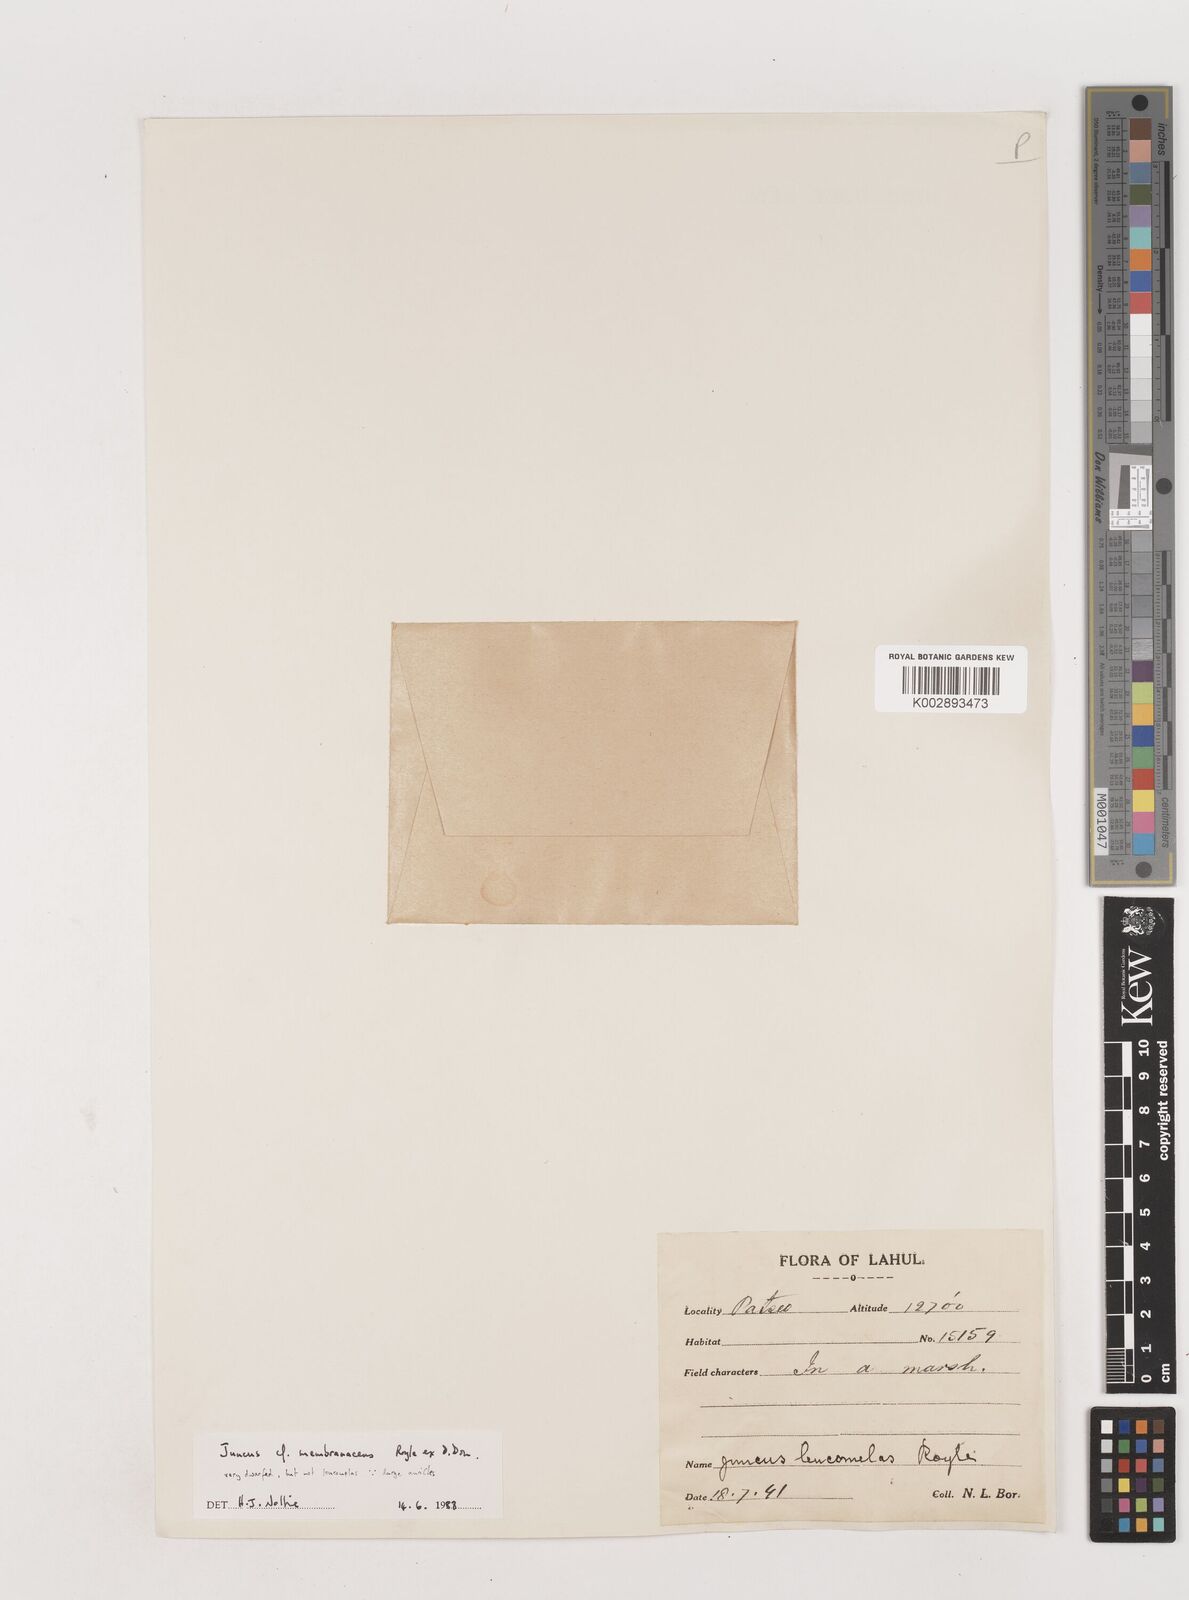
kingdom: Plantae
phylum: Tracheophyta
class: Liliopsida
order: Poales
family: Juncaceae
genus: Juncus
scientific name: Juncus membranaceus
